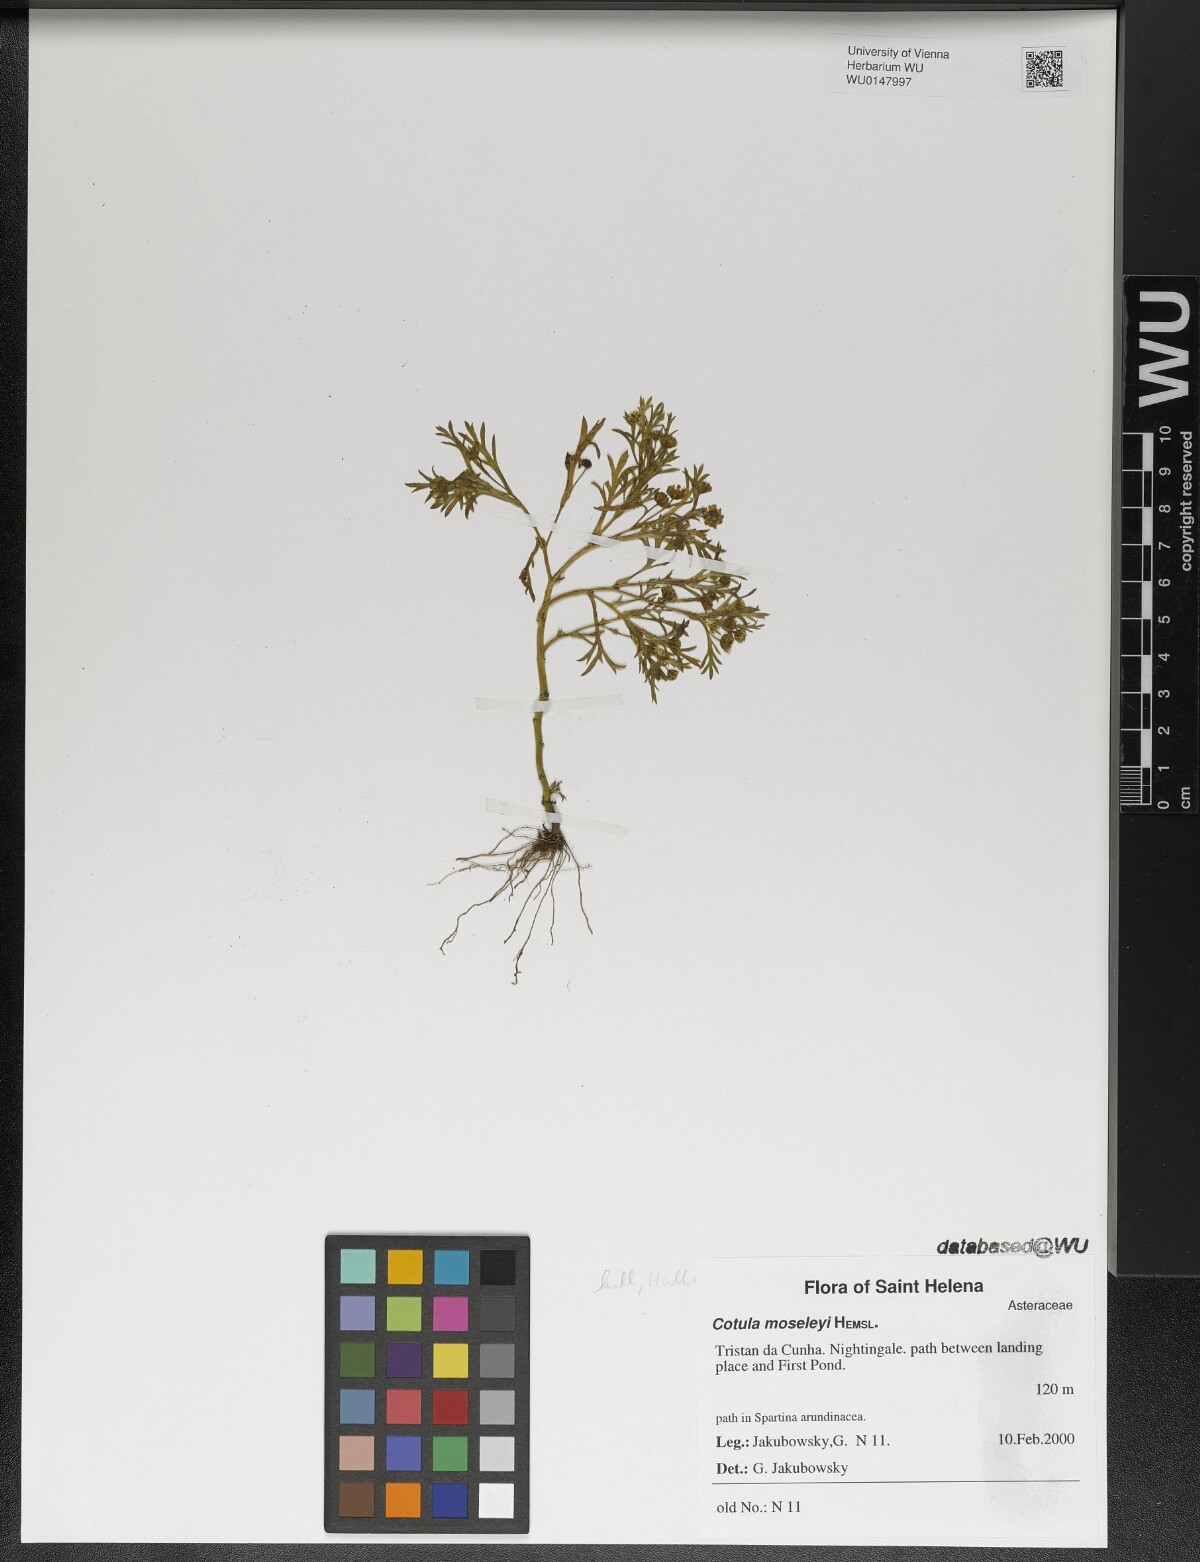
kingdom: Plantae
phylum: Tracheophyta
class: Magnoliopsida
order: Asterales
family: Asteraceae
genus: Cotula
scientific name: Cotula moseleyi
